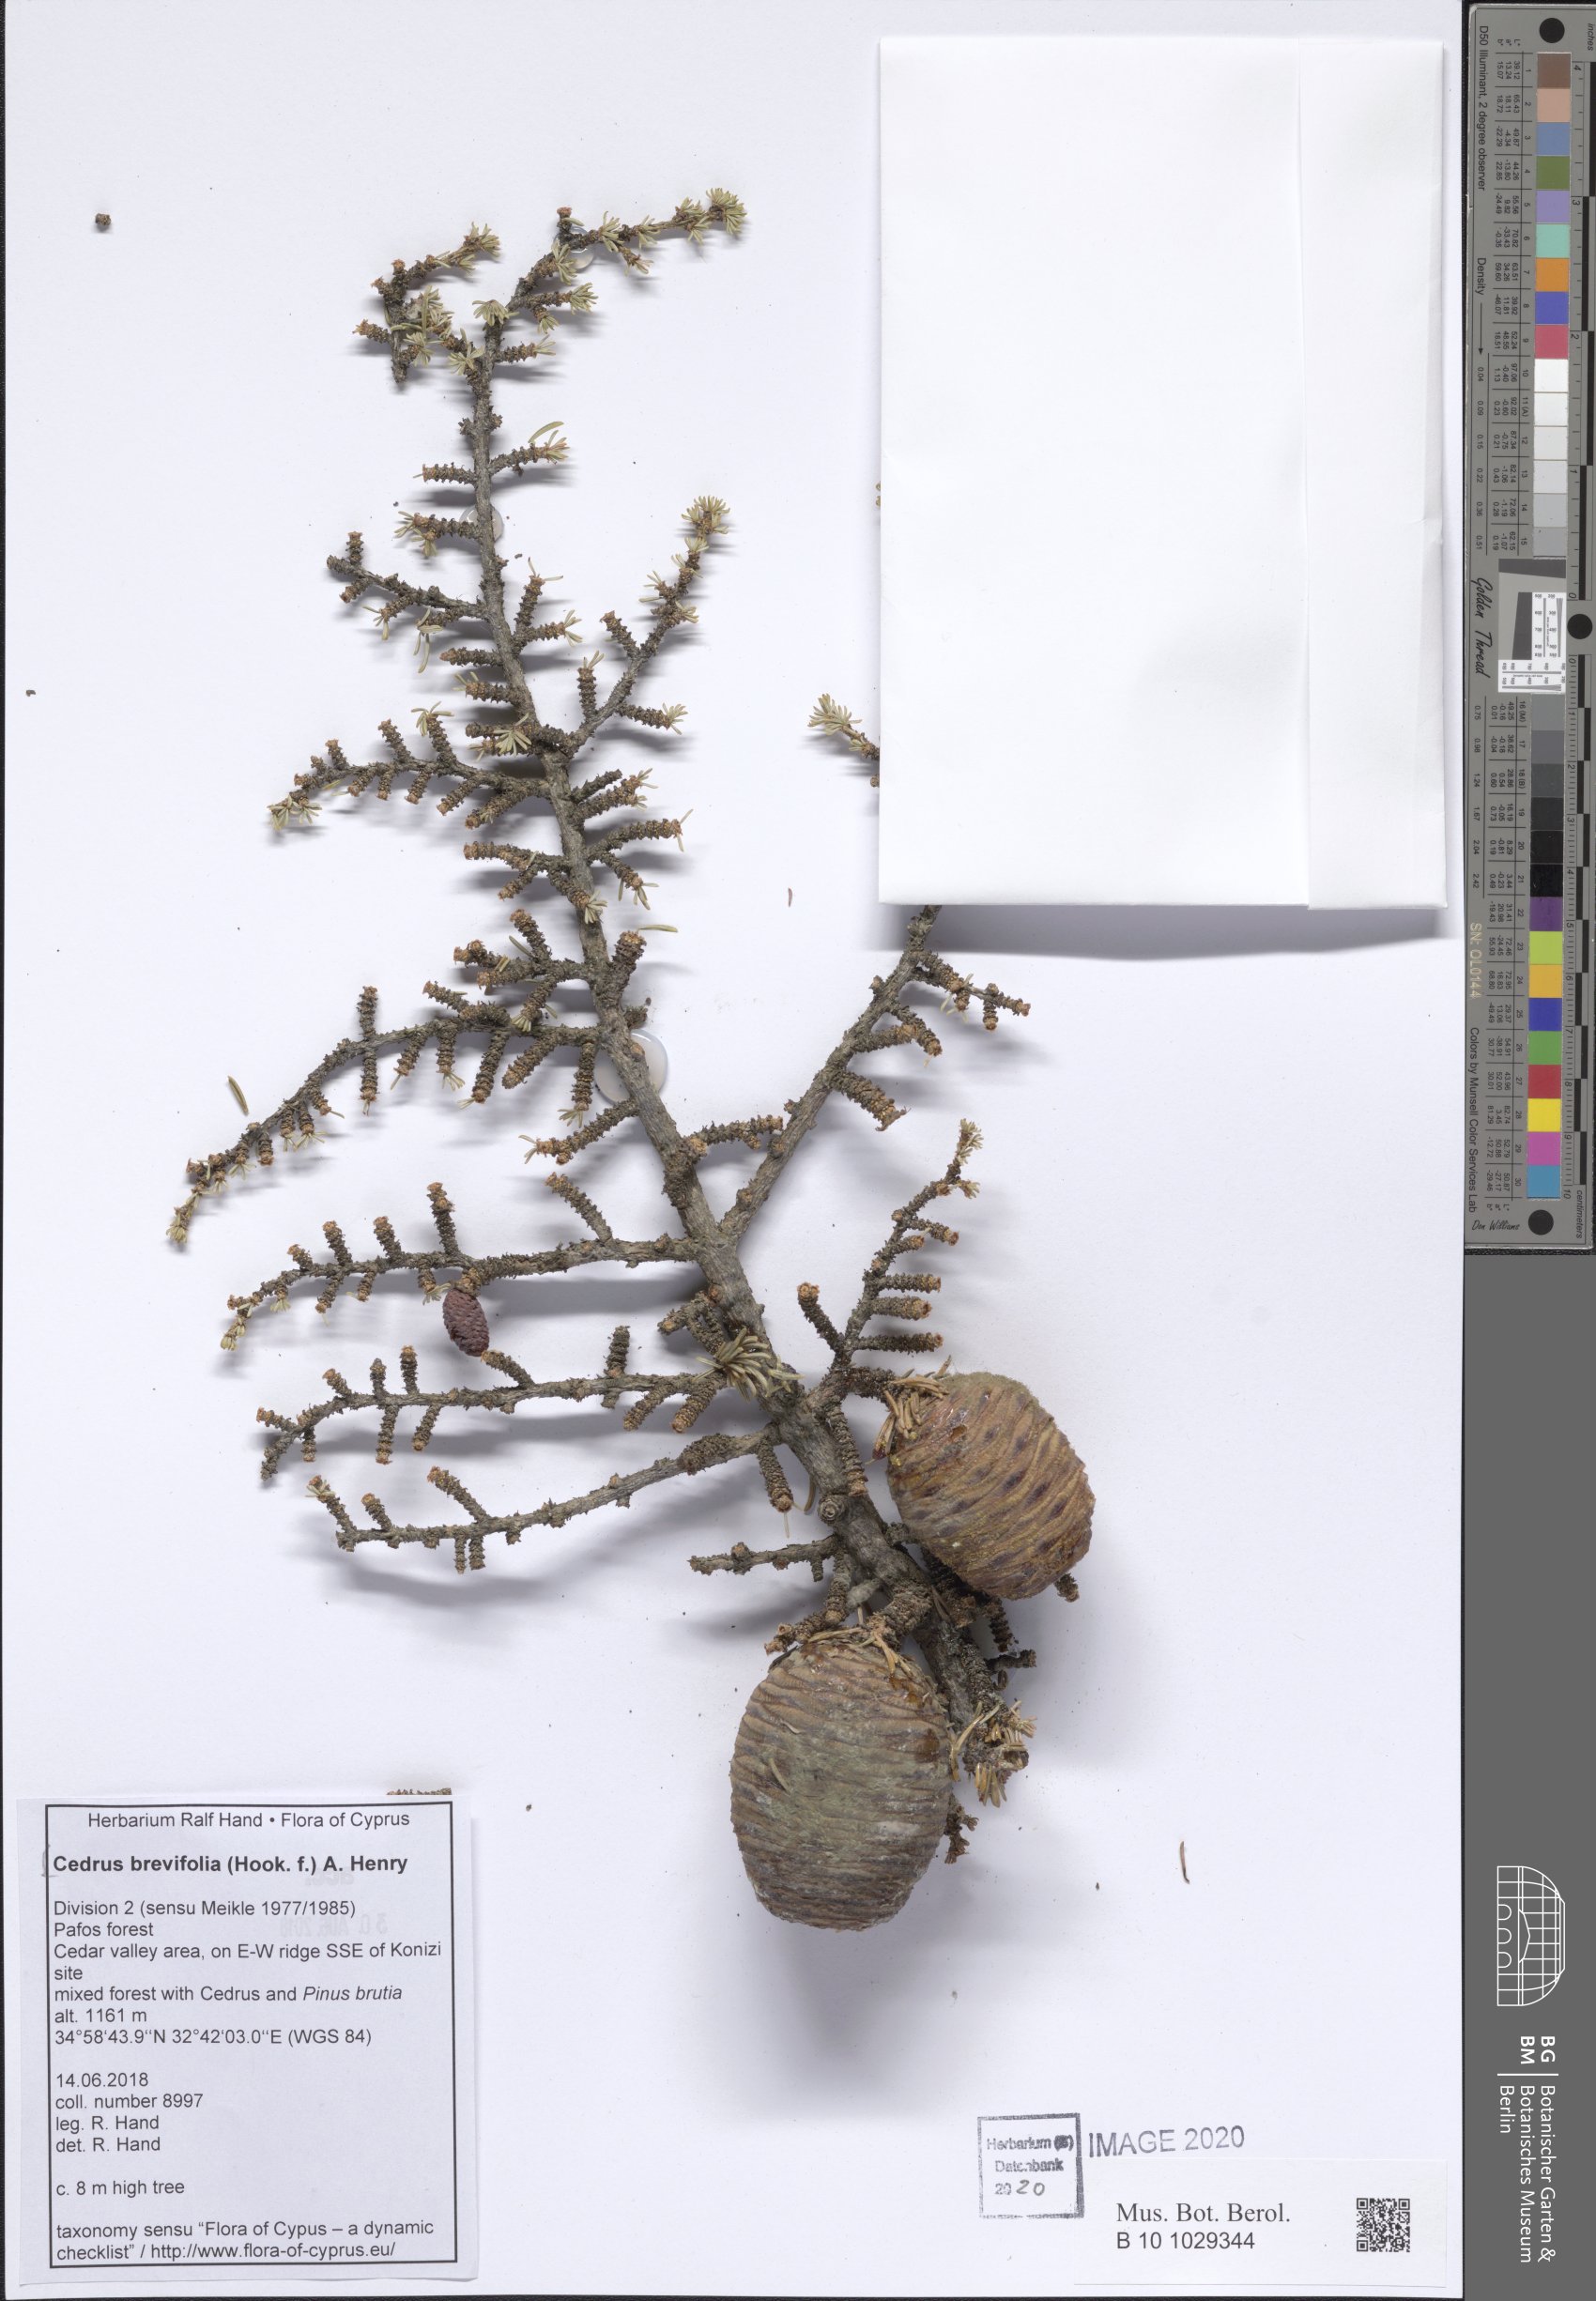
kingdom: Plantae
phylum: Tracheophyta
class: Pinopsida
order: Pinales
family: Pinaceae
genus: Cedrus
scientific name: Cedrus libani
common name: Cedar-of-lebanon
